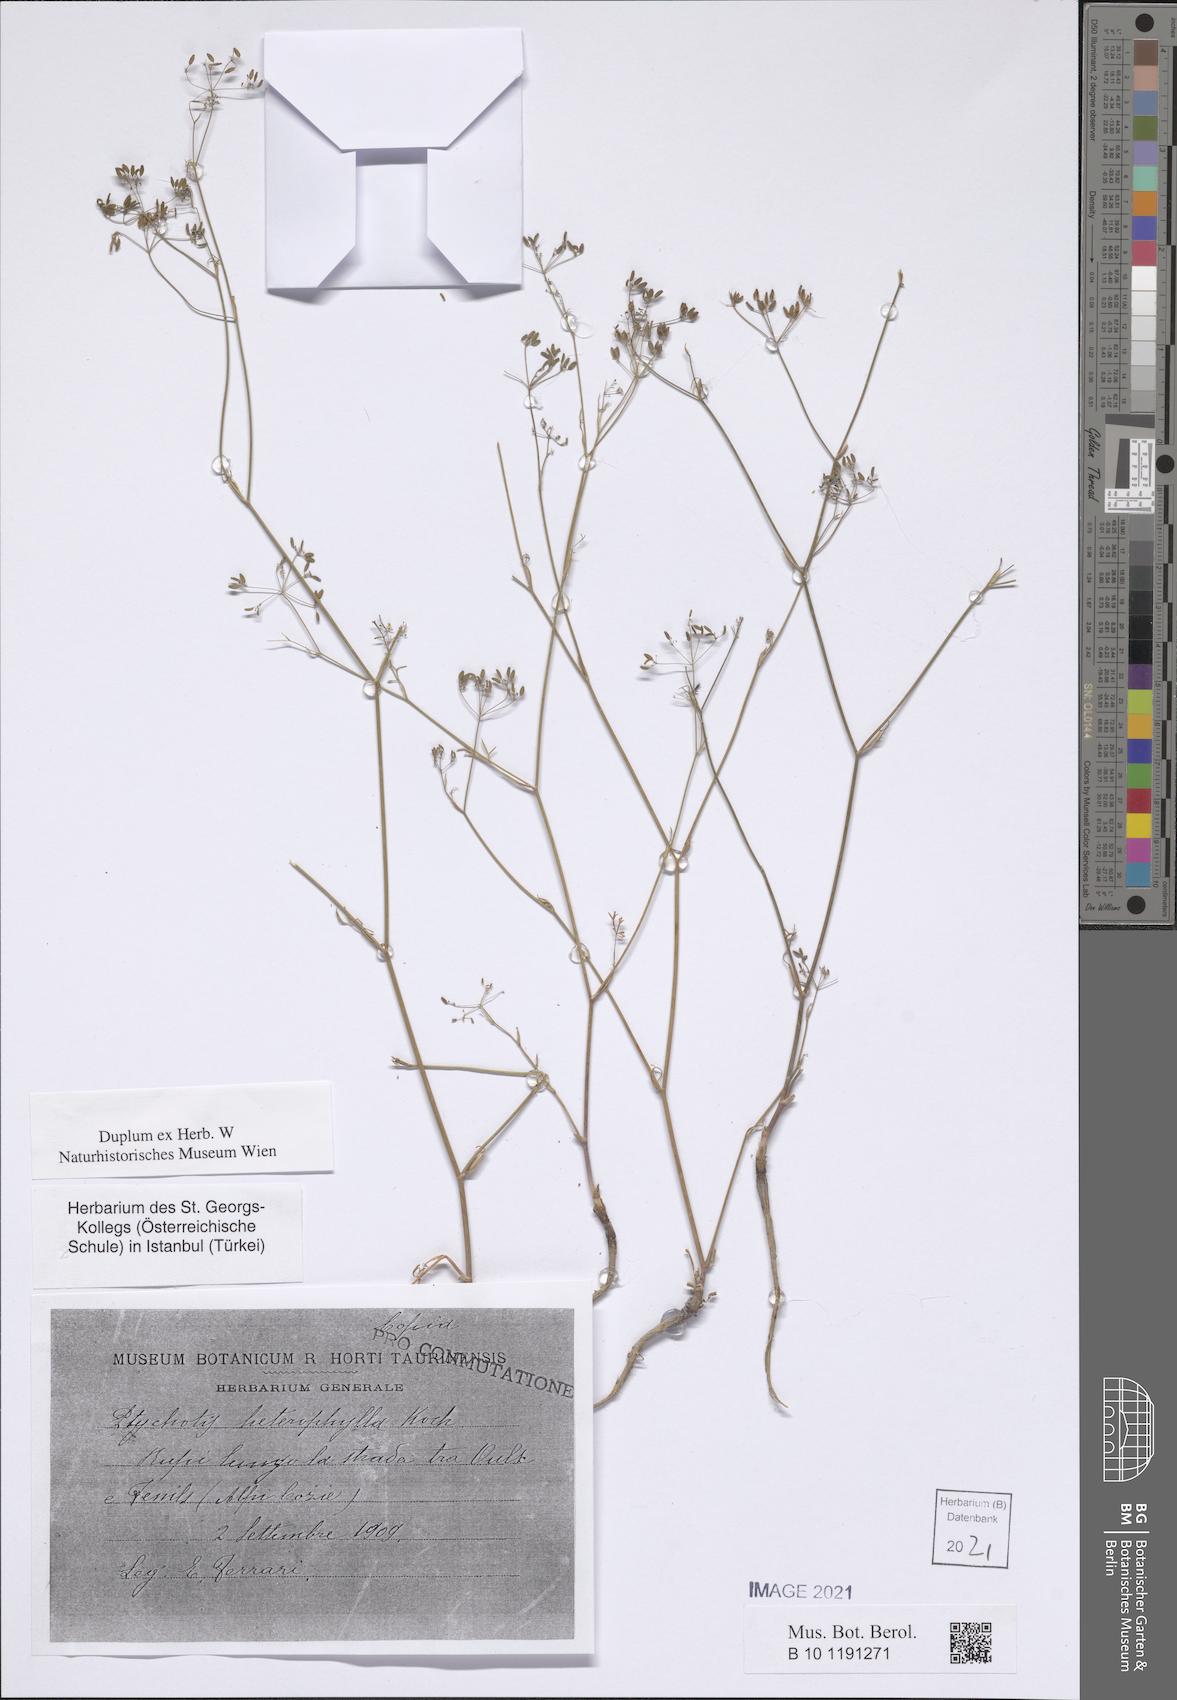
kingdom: Plantae
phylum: Tracheophyta
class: Magnoliopsida
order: Apiales
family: Apiaceae
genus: Ptychotis
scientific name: Ptychotis saxifraga
